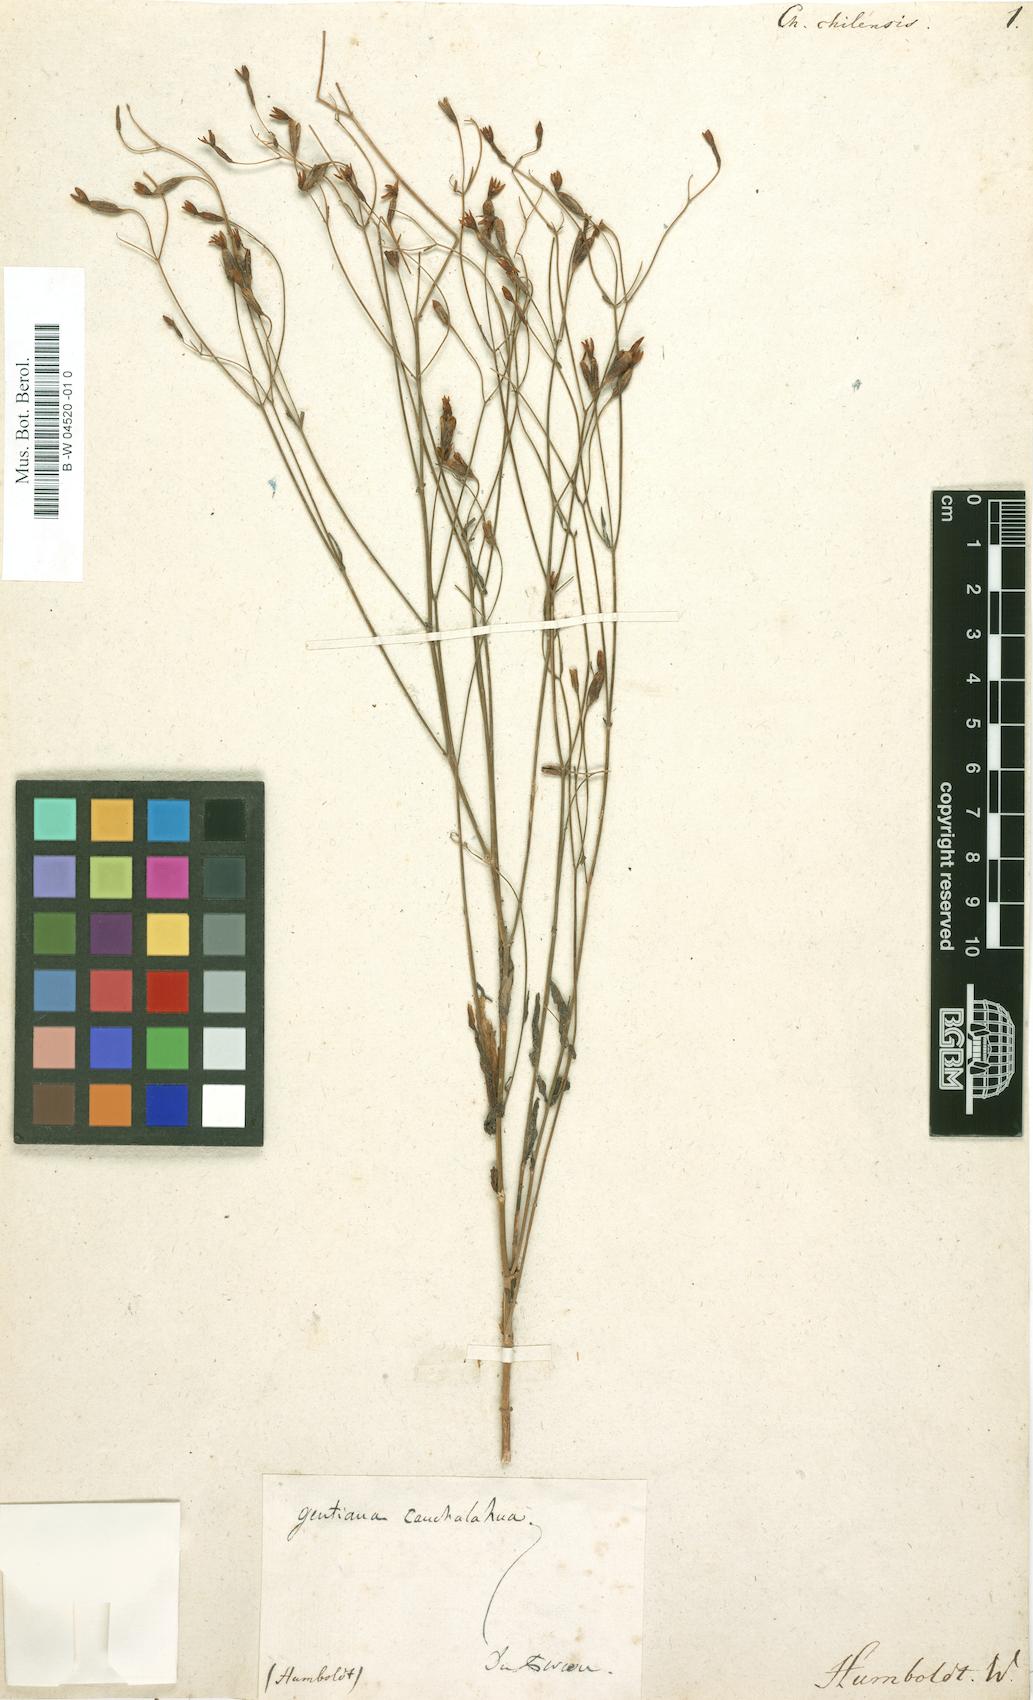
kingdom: Plantae
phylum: Tracheophyta
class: Magnoliopsida
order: Gentianales
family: Gentianaceae
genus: Centaurium
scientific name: Centaurium cachanlahuen
